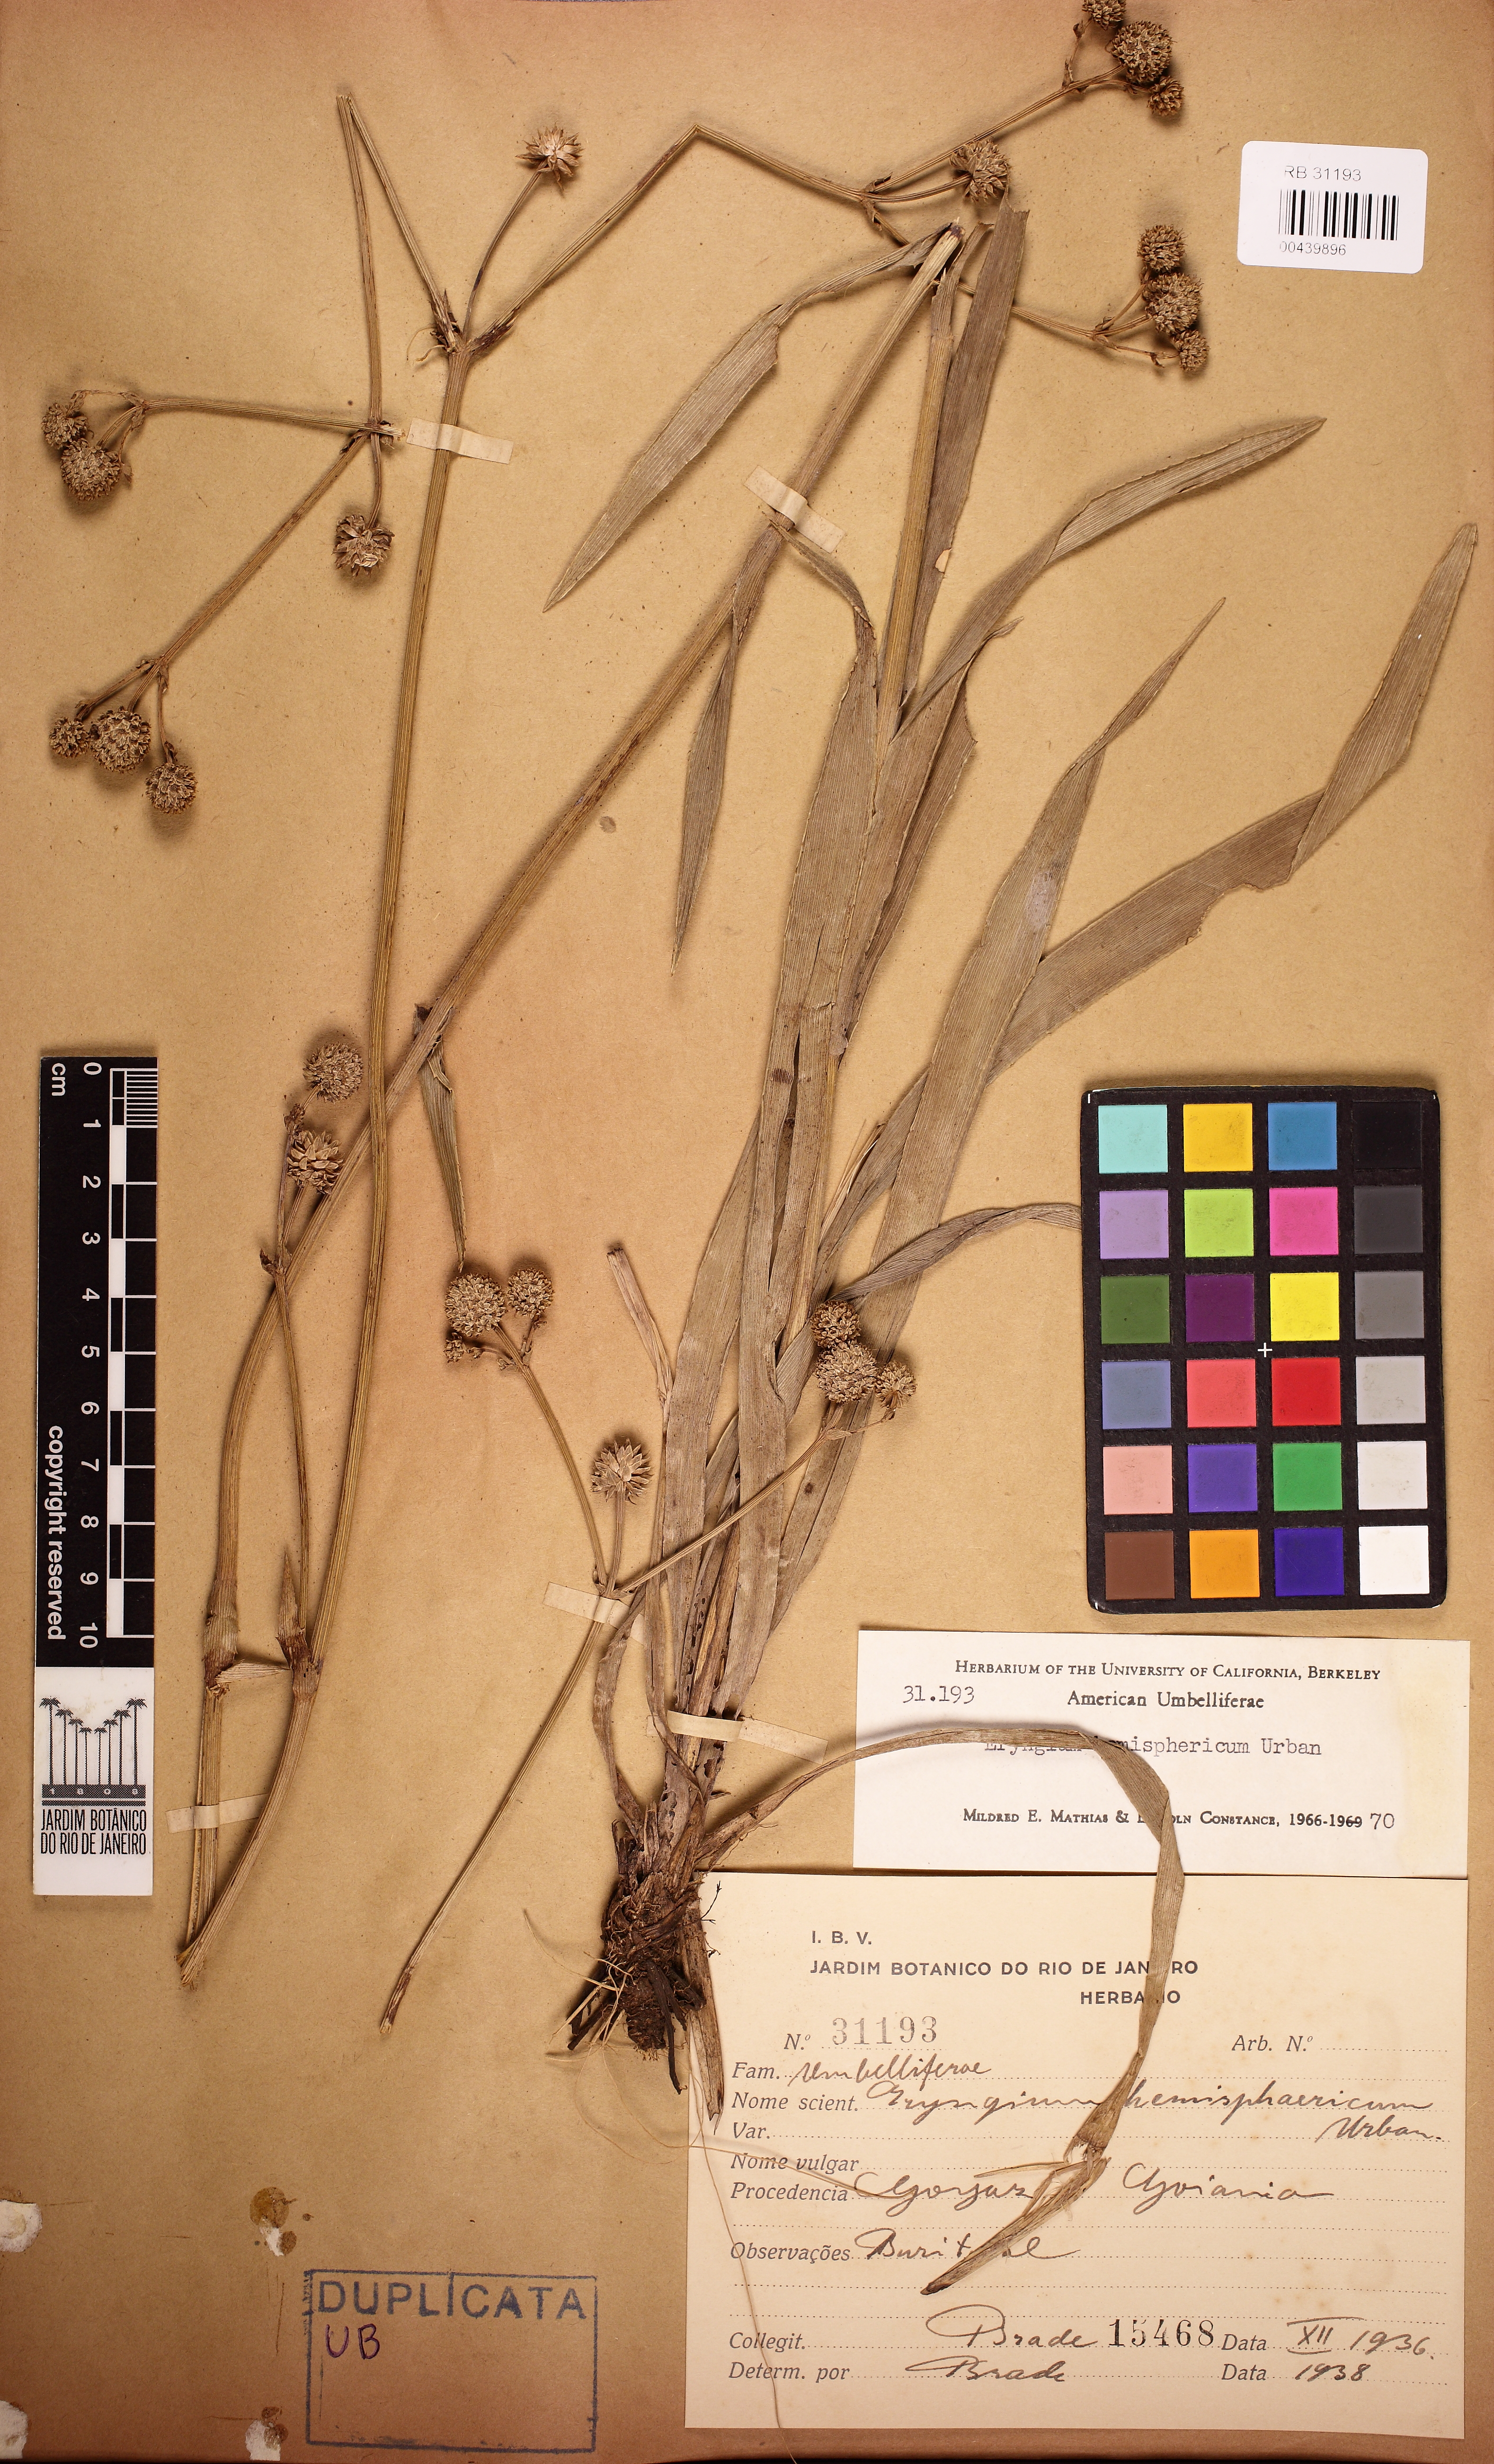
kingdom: Plantae
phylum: Tracheophyta
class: Magnoliopsida
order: Apiales
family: Apiaceae
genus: Eryngium
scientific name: Eryngium hemisphaericum
